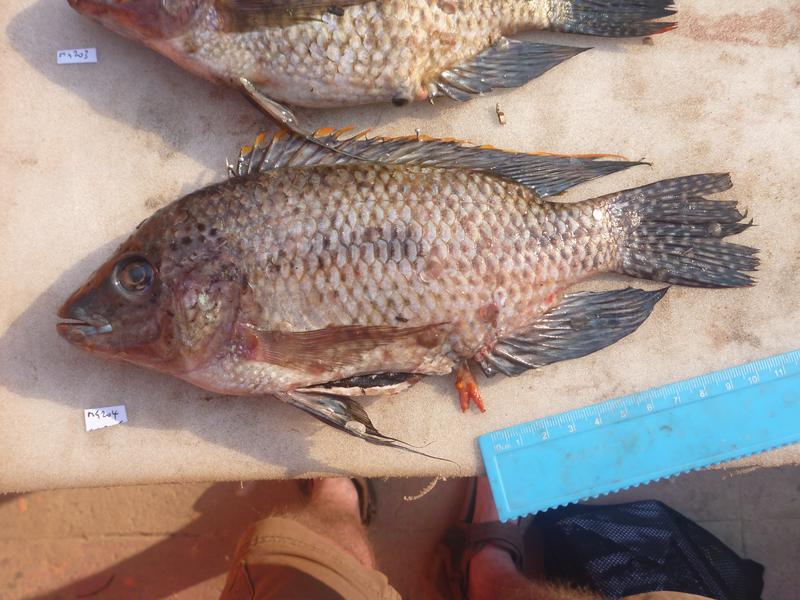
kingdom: Animalia
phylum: Chordata
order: Perciformes
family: Cichlidae
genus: Oreochromis
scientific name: Oreochromis karomo
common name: Karomo
